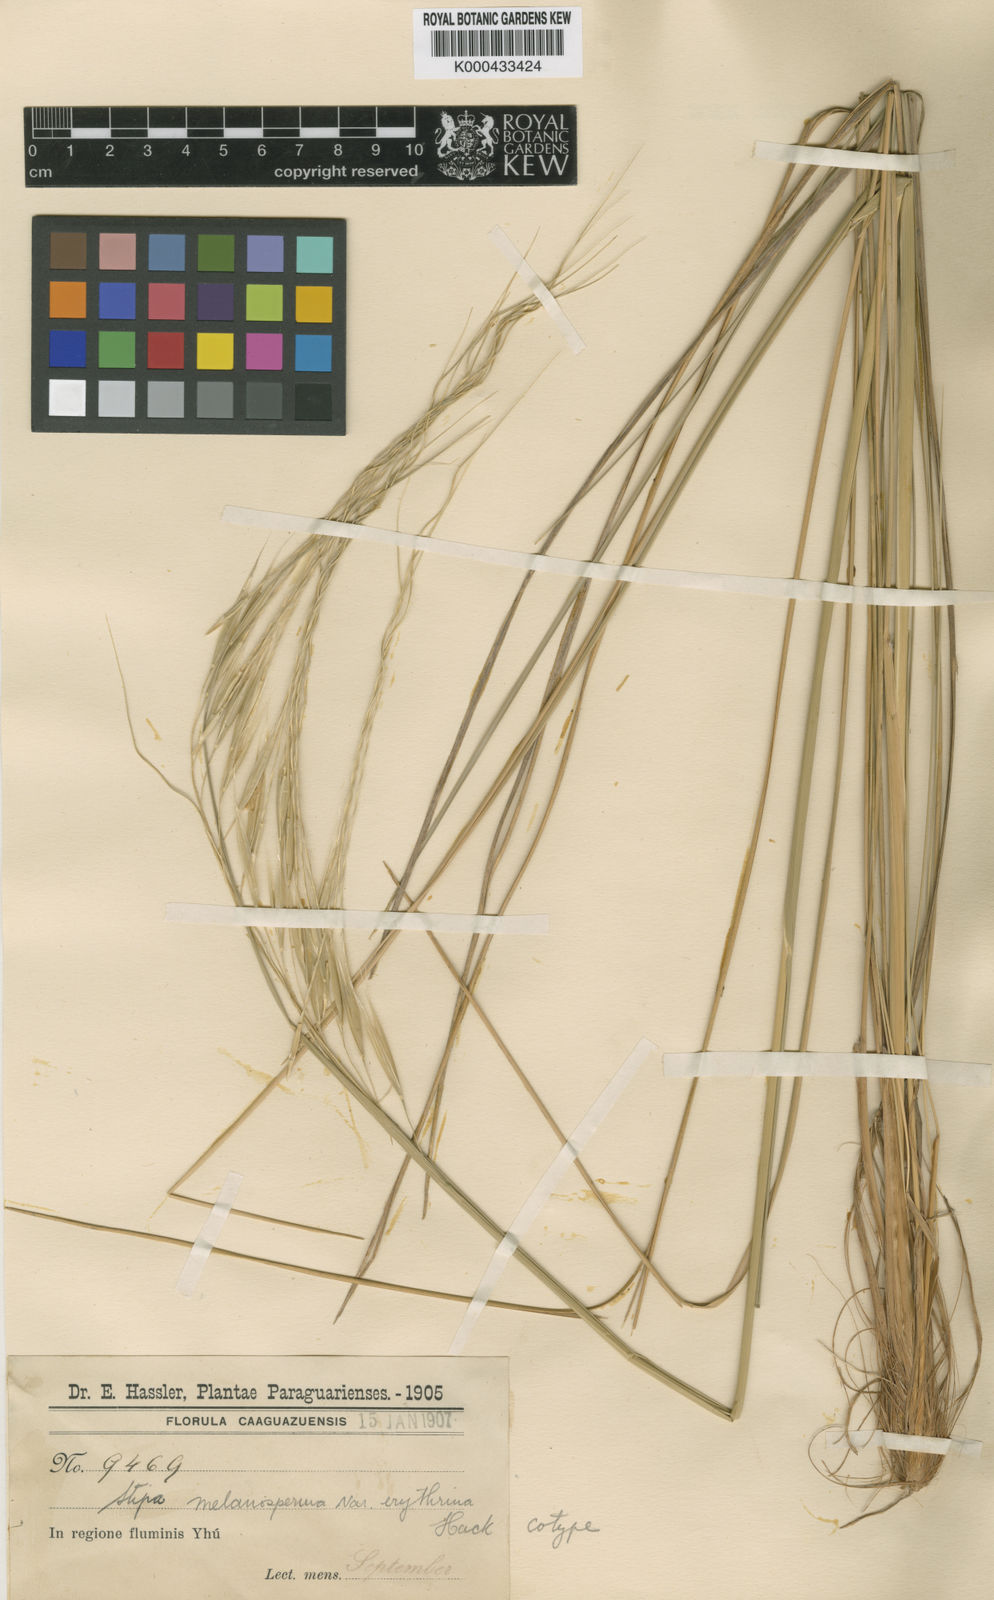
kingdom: Plantae
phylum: Tracheophyta
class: Liliopsida
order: Poales
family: Poaceae
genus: Nassella
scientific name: Nassella melanosperma
